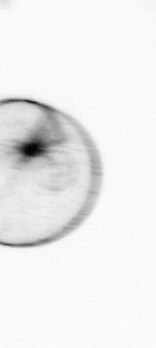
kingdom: Chromista
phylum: Myzozoa
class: Dinophyceae
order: Noctilucales
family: Noctilucaceae
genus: Noctiluca
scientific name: Noctiluca scintillans
